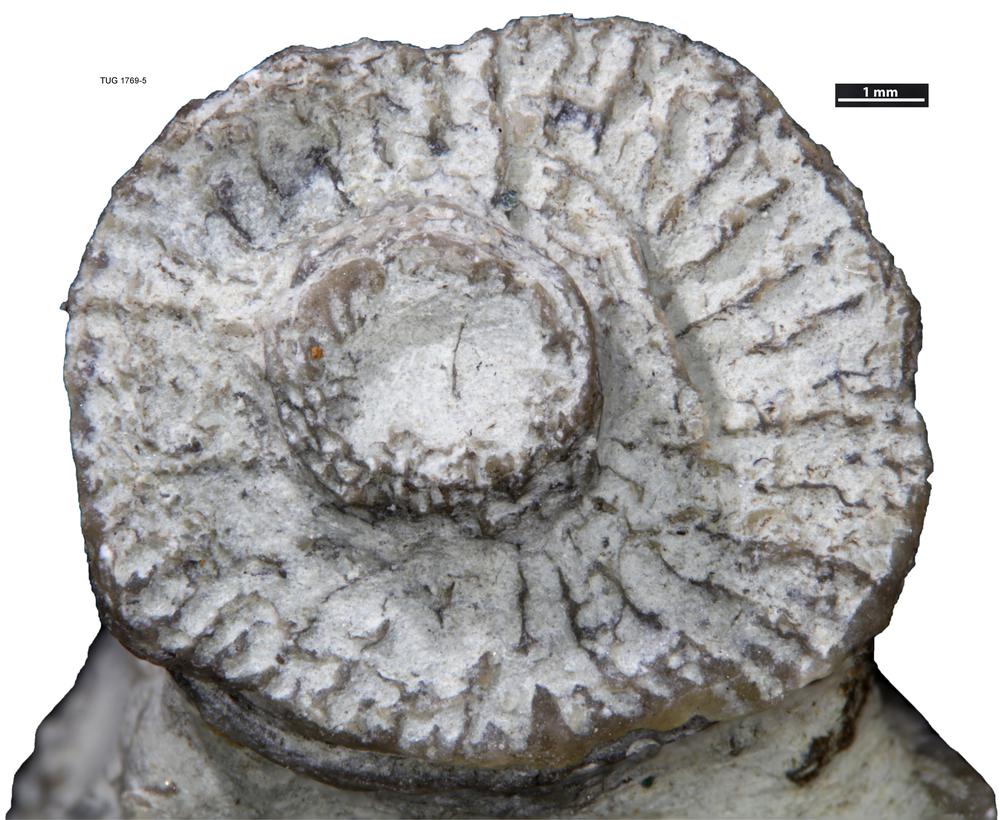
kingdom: Animalia
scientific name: Animalia
